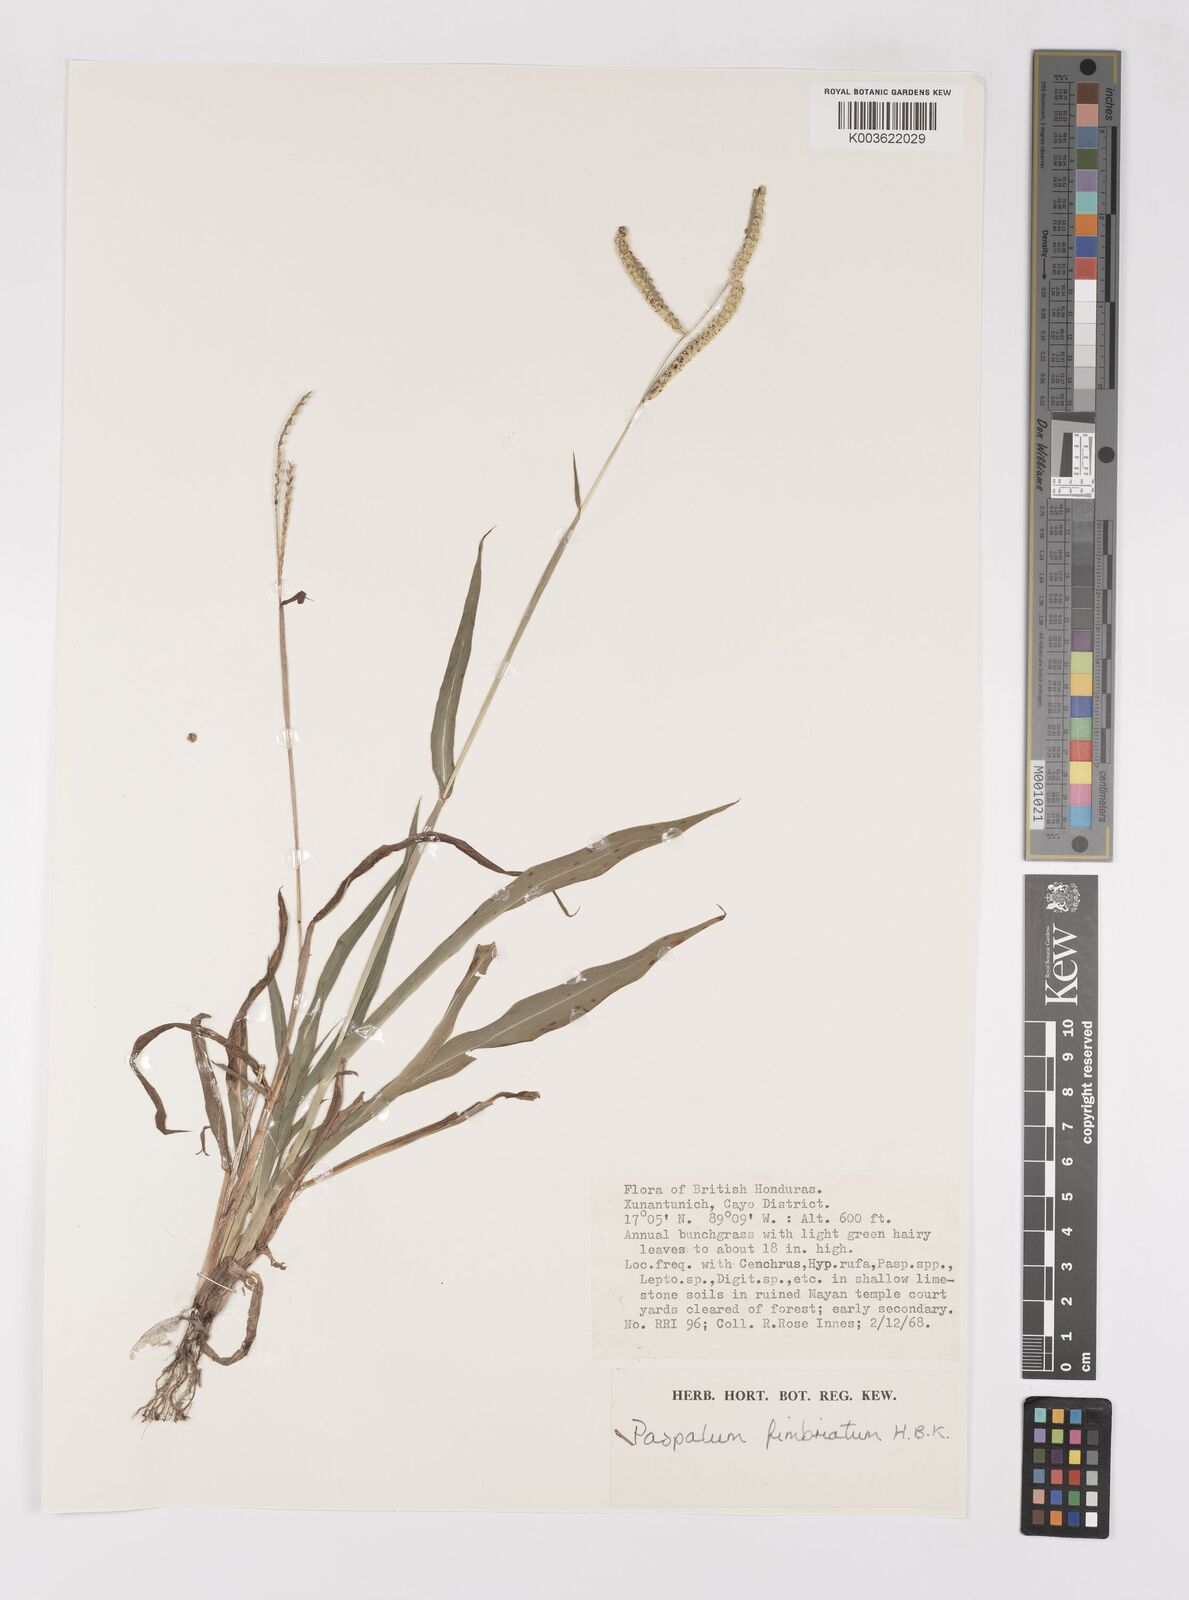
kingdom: Plantae
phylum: Tracheophyta
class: Liliopsida
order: Poales
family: Poaceae
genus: Paspalum
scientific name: Paspalum fimbriatum
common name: Panama crowngrass
